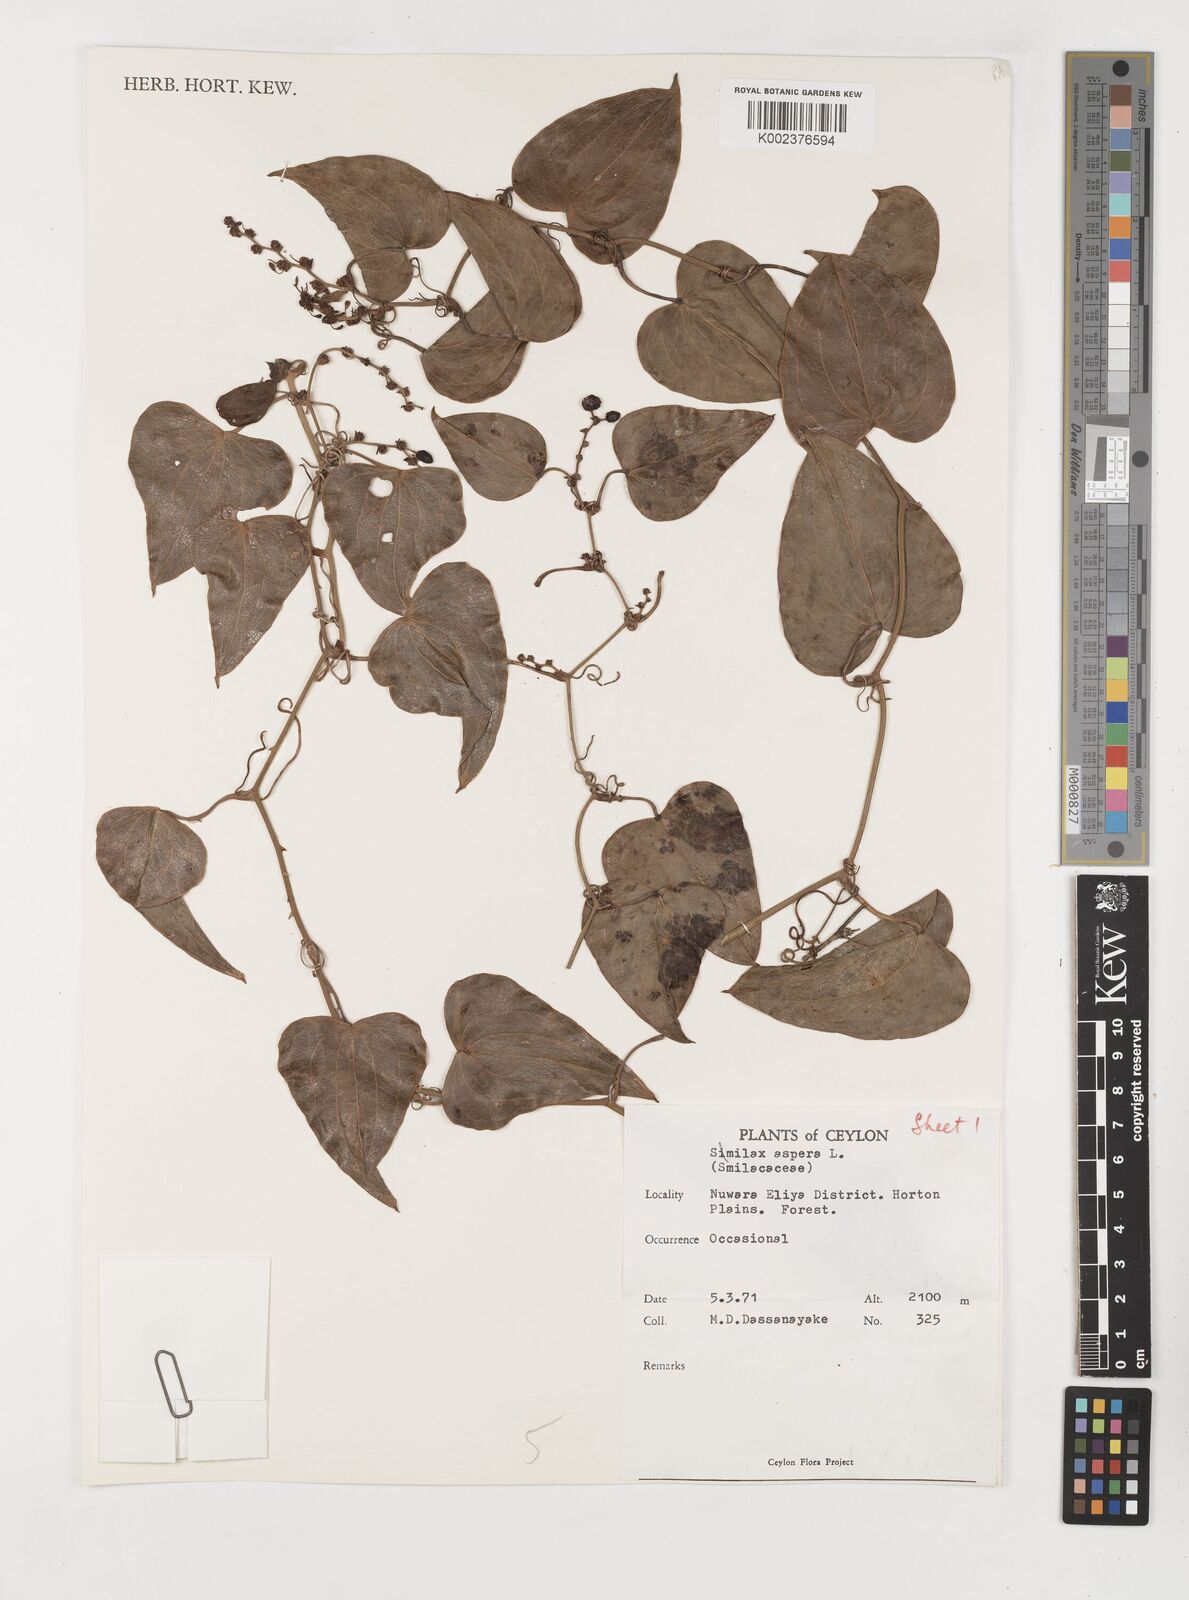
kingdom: Plantae
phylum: Tracheophyta
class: Liliopsida
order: Liliales
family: Smilacaceae
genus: Smilax
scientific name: Smilax aspera
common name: Common smilax
